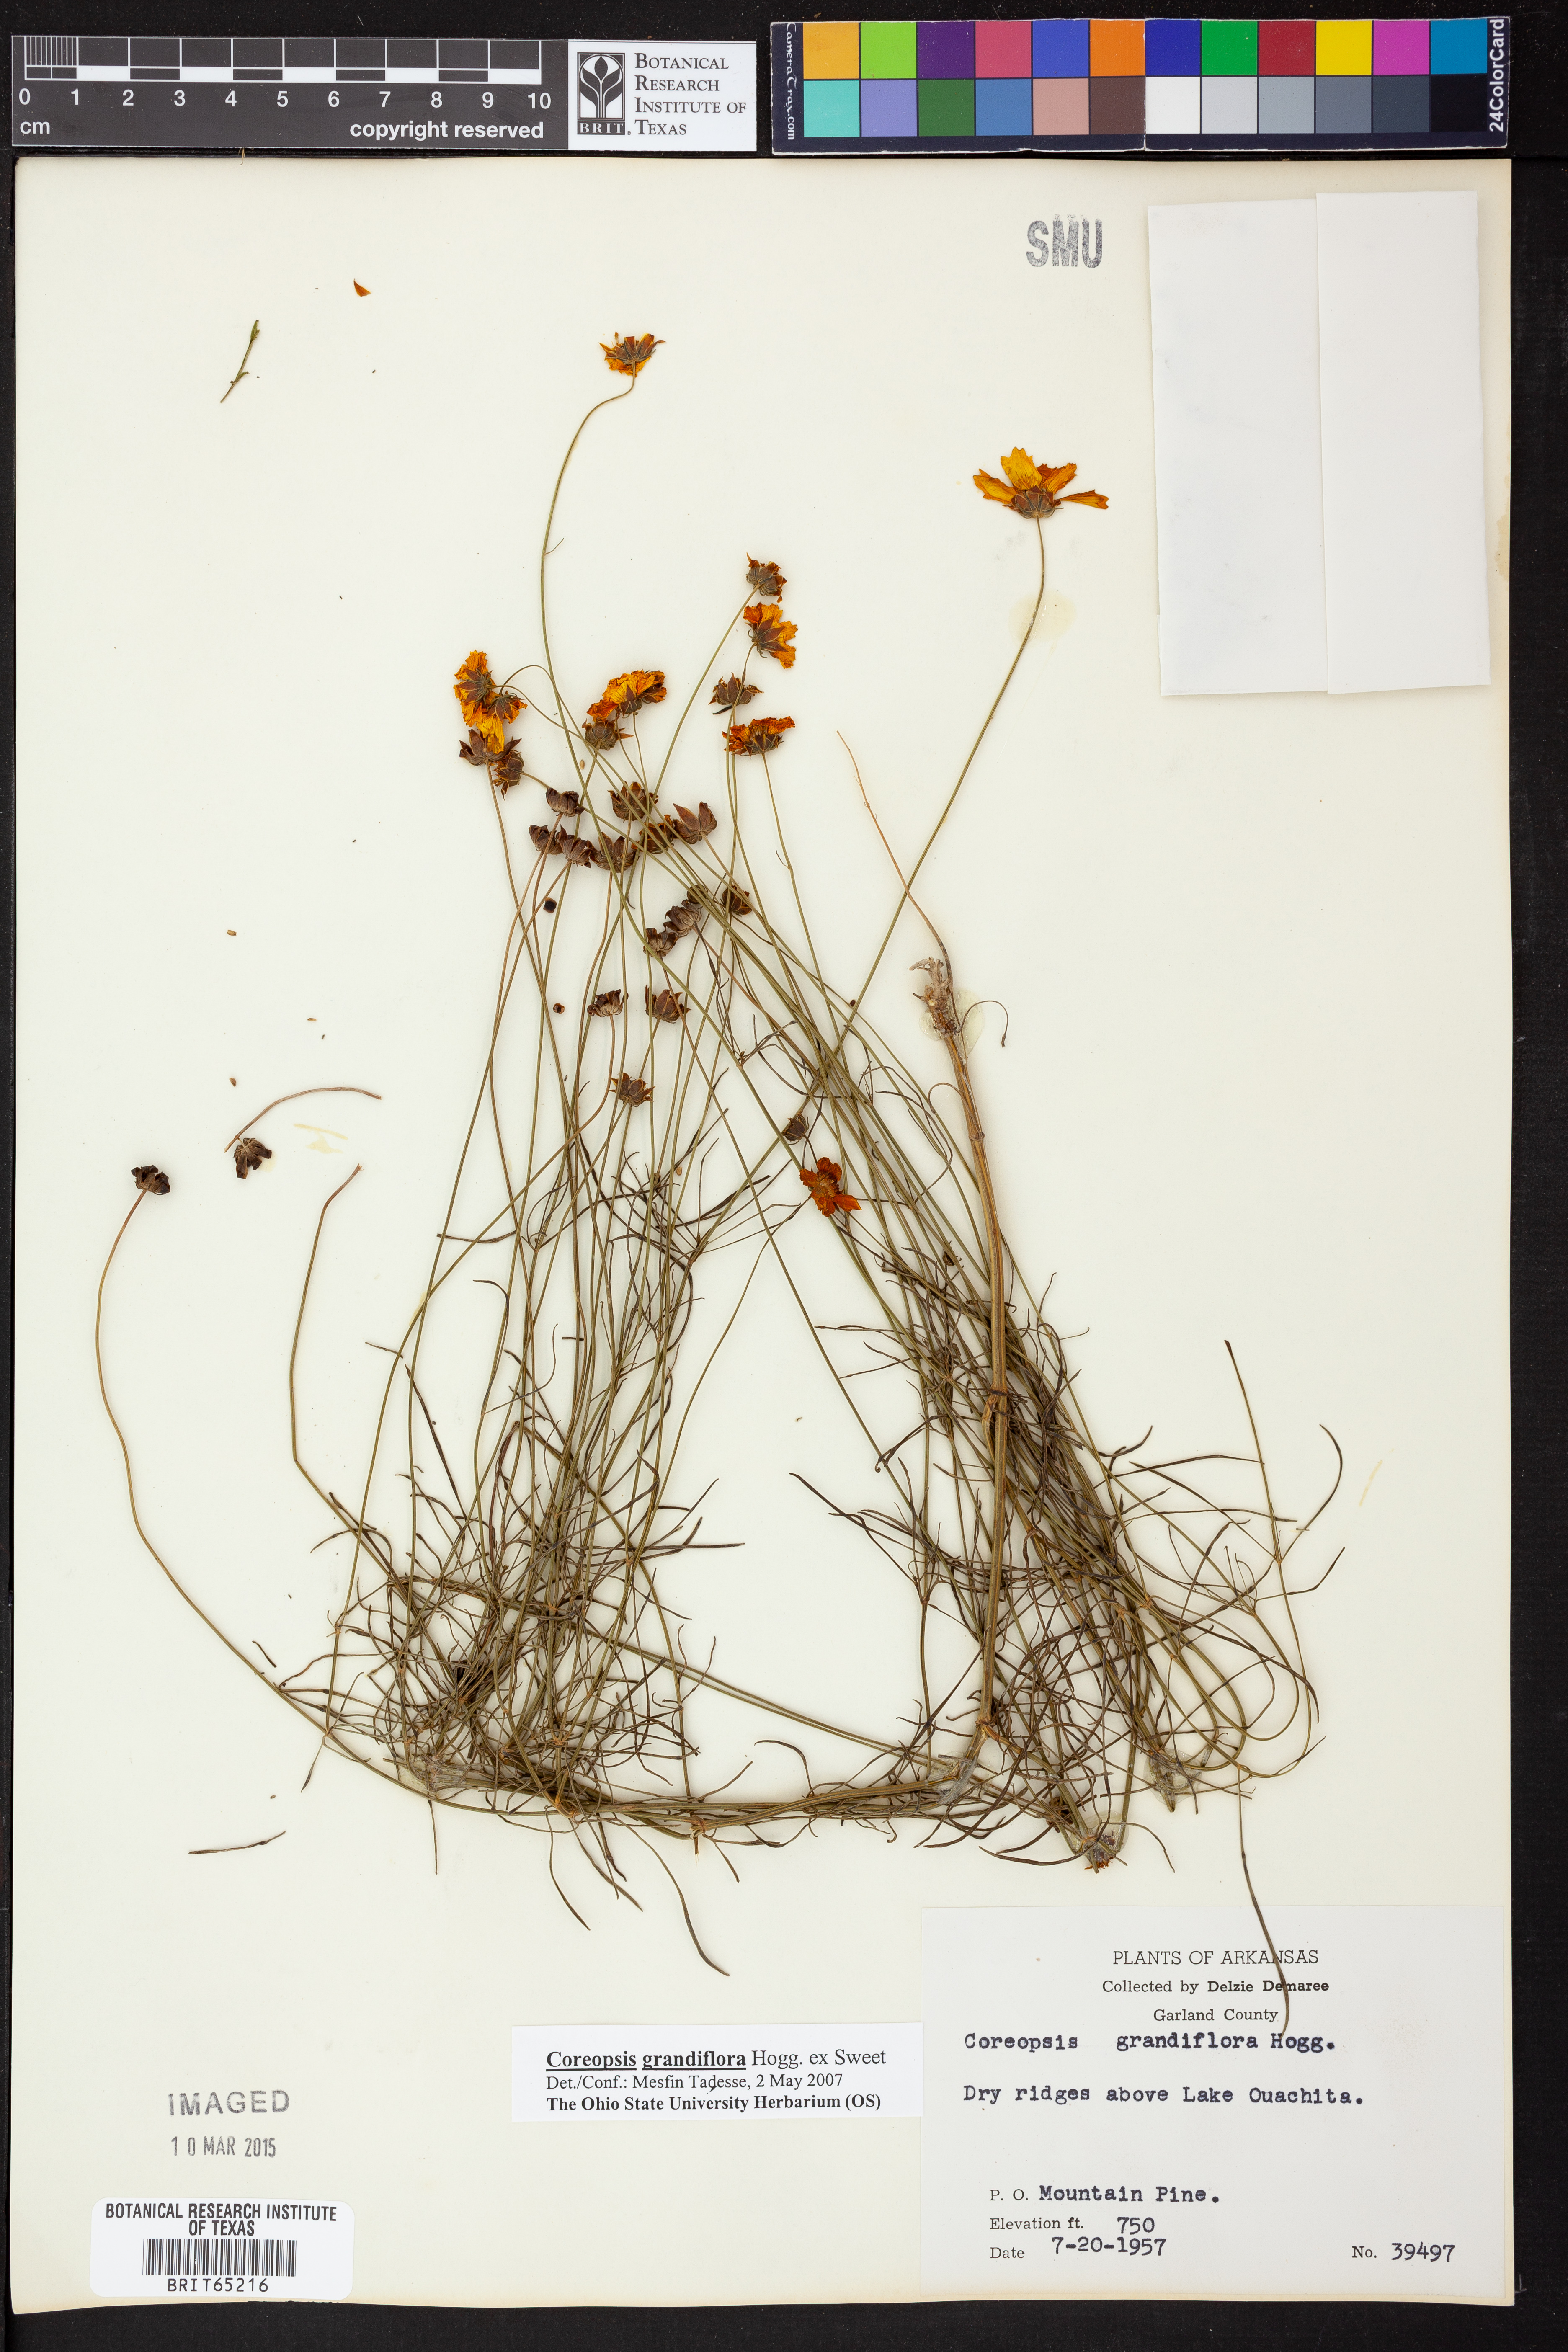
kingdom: Plantae
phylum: Tracheophyta
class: Magnoliopsida
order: Asterales
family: Asteraceae
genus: Coreopsis
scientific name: Coreopsis grandiflora
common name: Large-flowered tickseed
